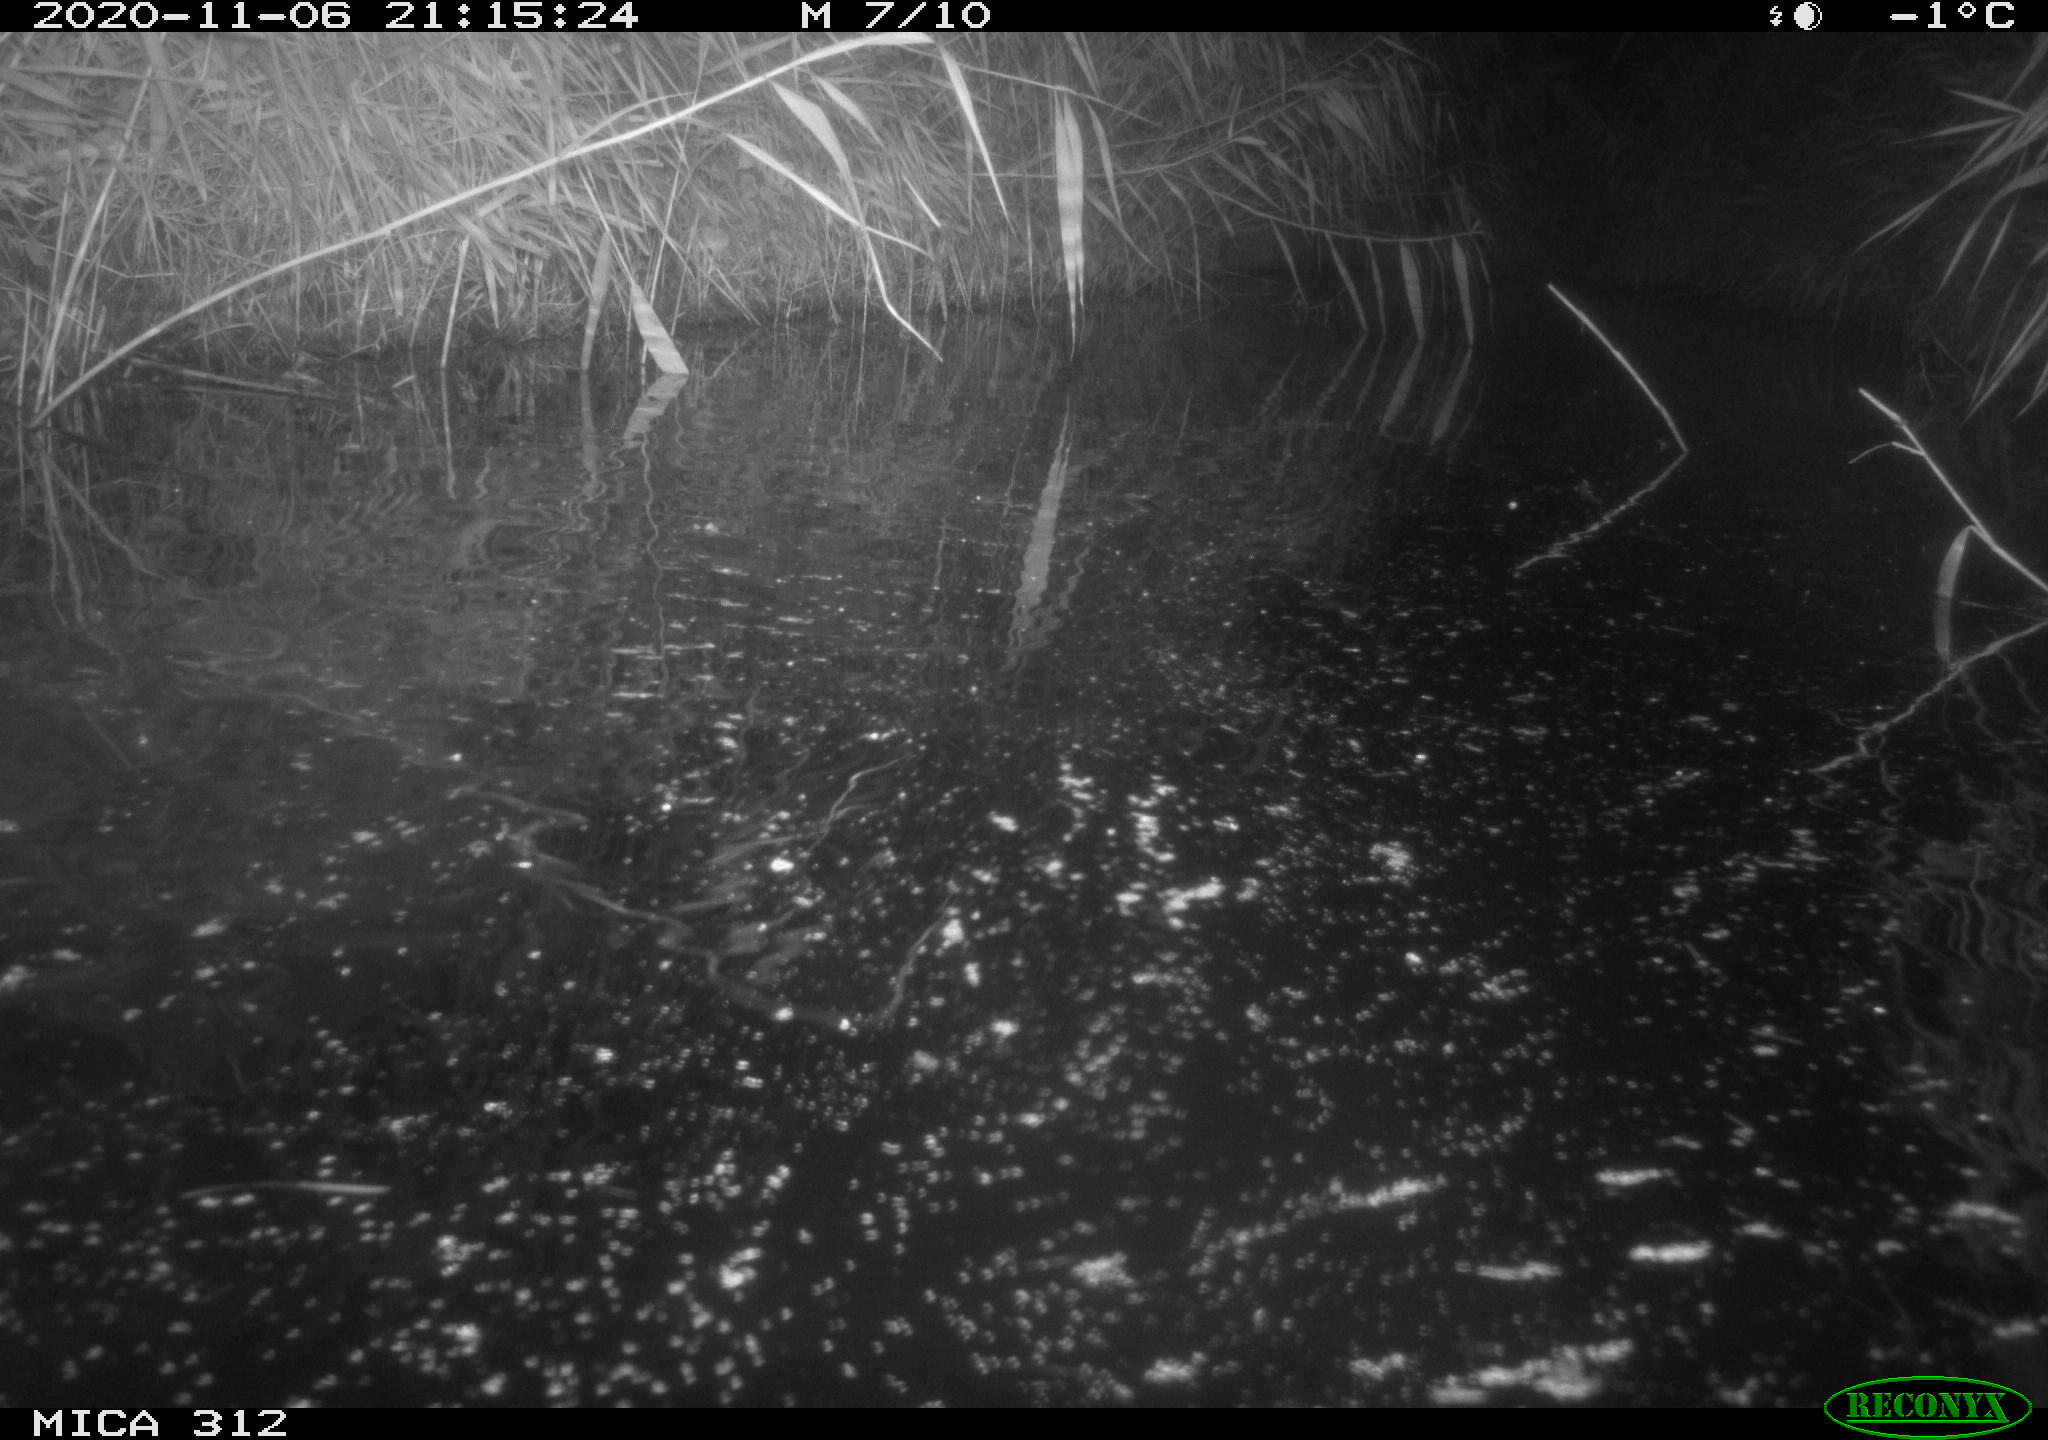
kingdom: Animalia
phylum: Chordata
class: Mammalia
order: Rodentia
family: Muridae
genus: Rattus
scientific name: Rattus norvegicus
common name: Brown rat
